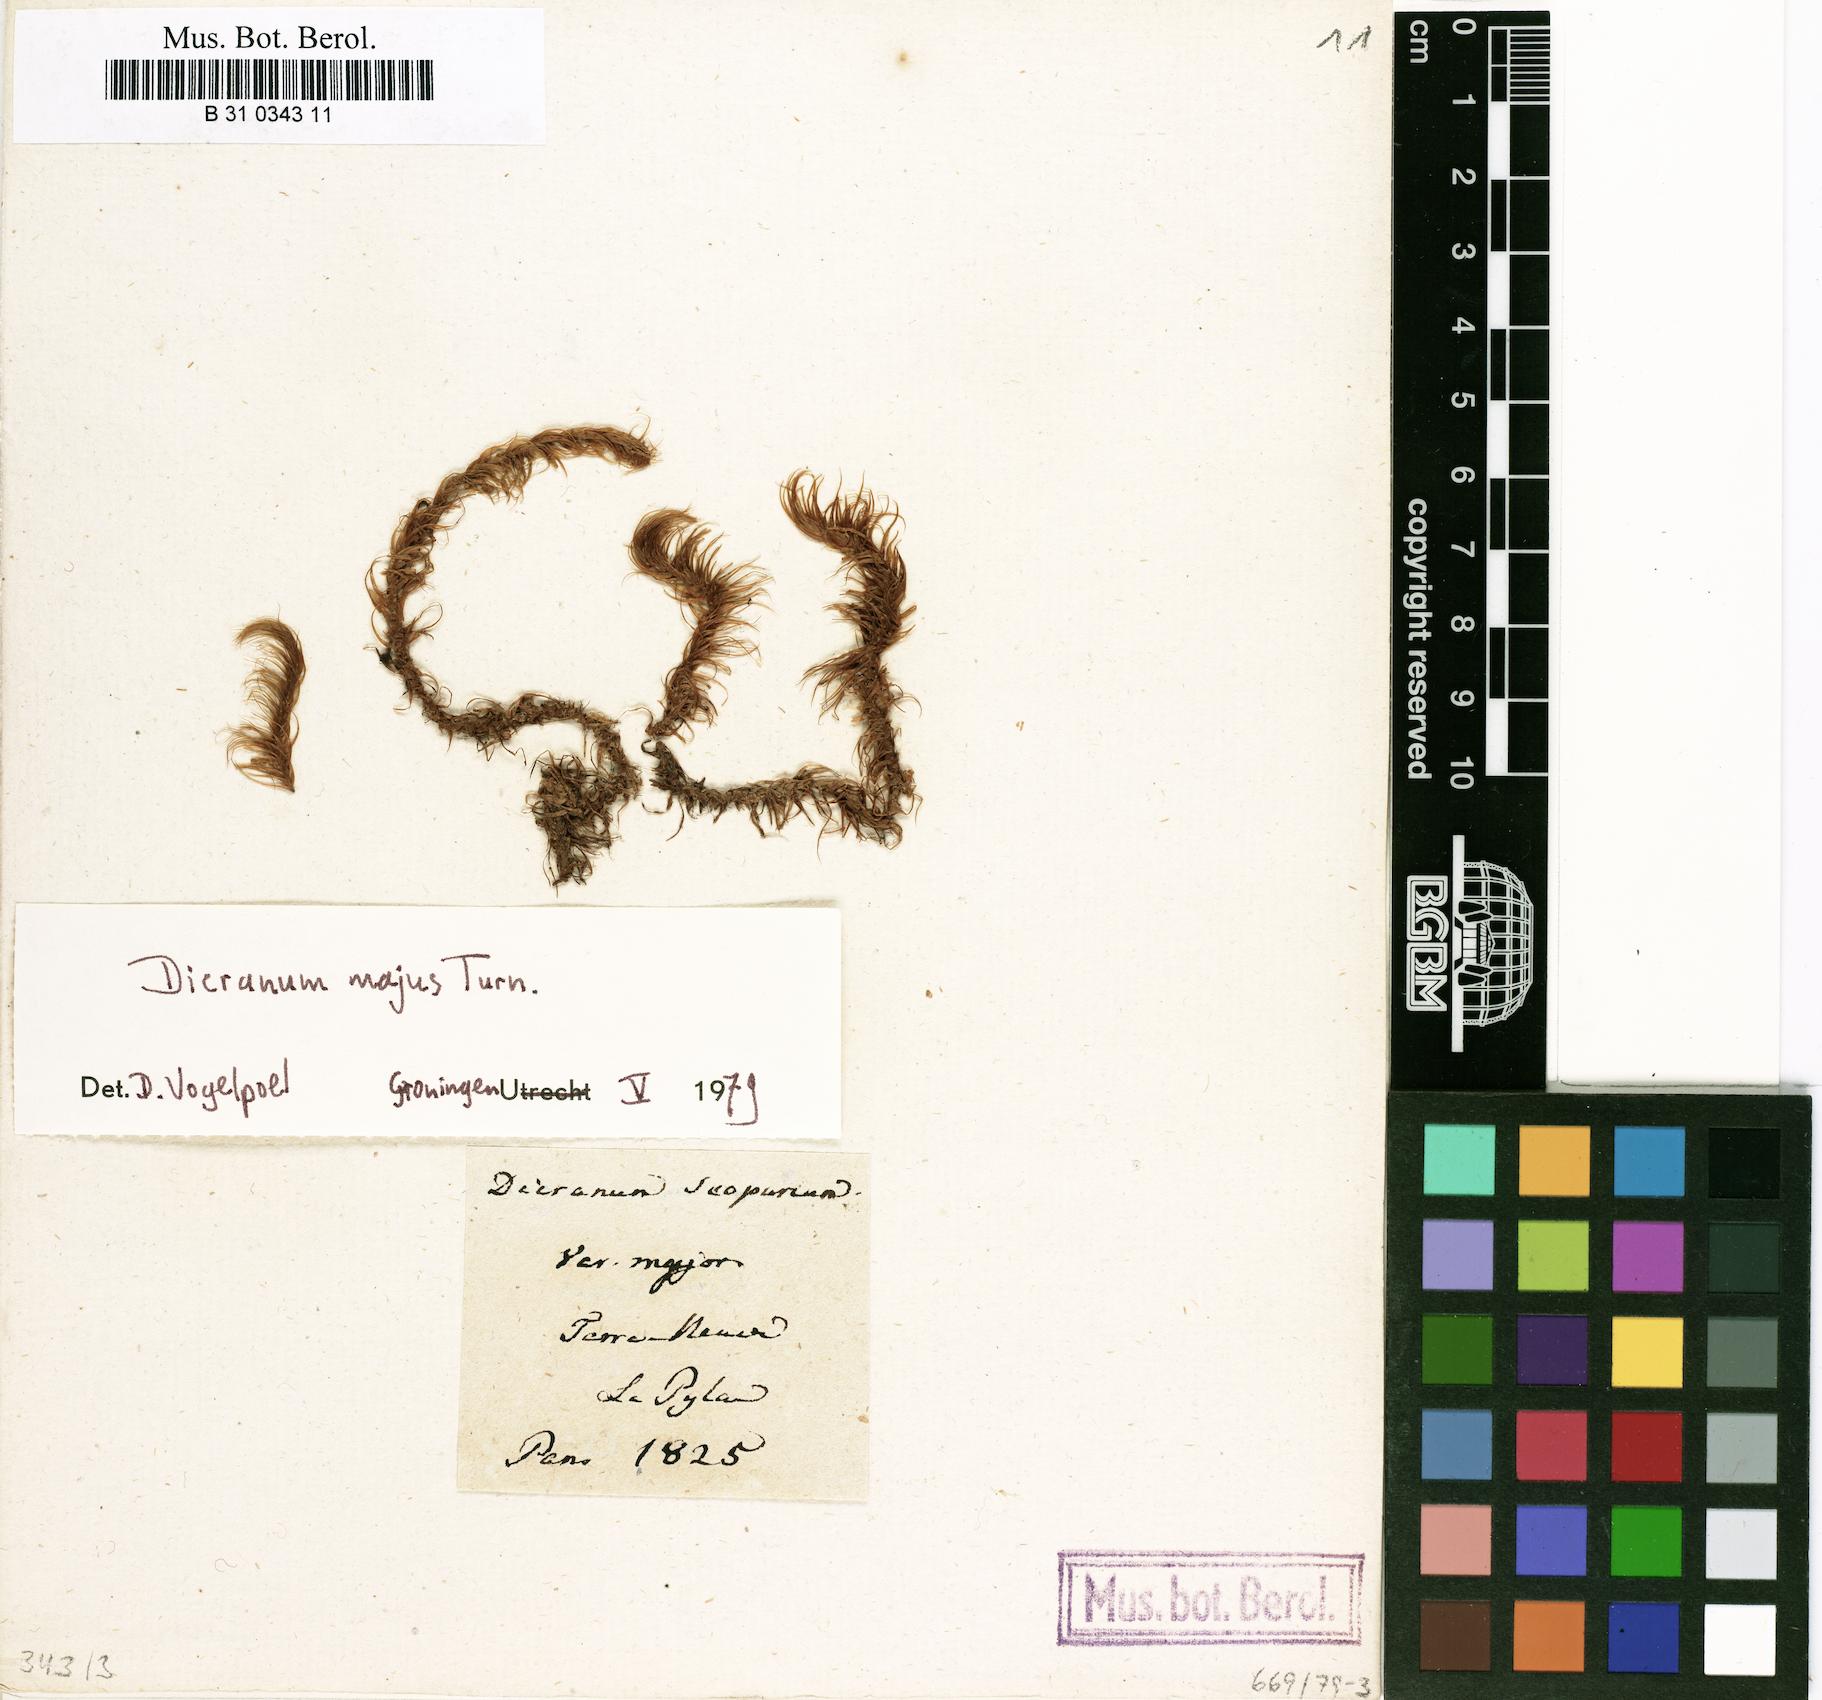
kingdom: Plantae
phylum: Bryophyta
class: Bryopsida
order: Dicranales
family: Dicranaceae
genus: Dicranum
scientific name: Dicranum scoparium
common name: Broom fork-moss
